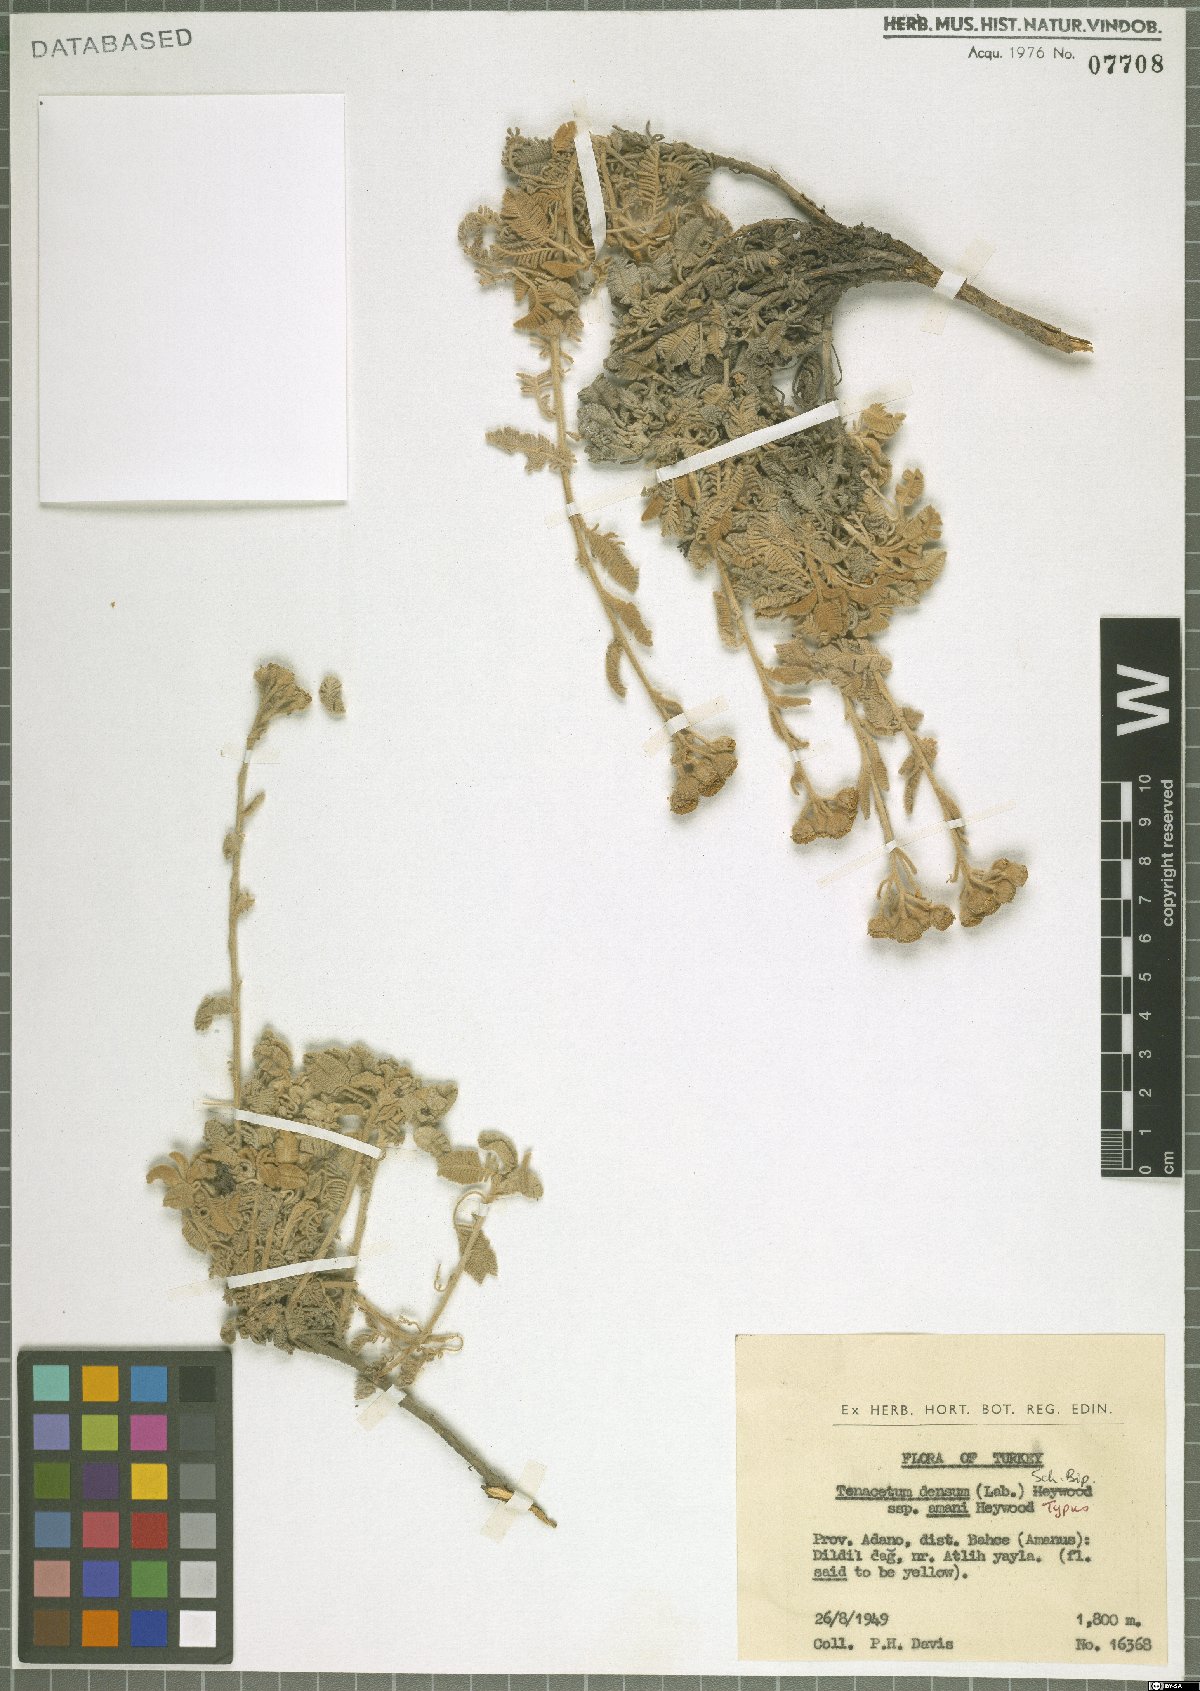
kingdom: Plantae
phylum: Tracheophyta
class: Magnoliopsida
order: Asterales
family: Asteraceae
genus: Tanacetum
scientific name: Tanacetum densum
